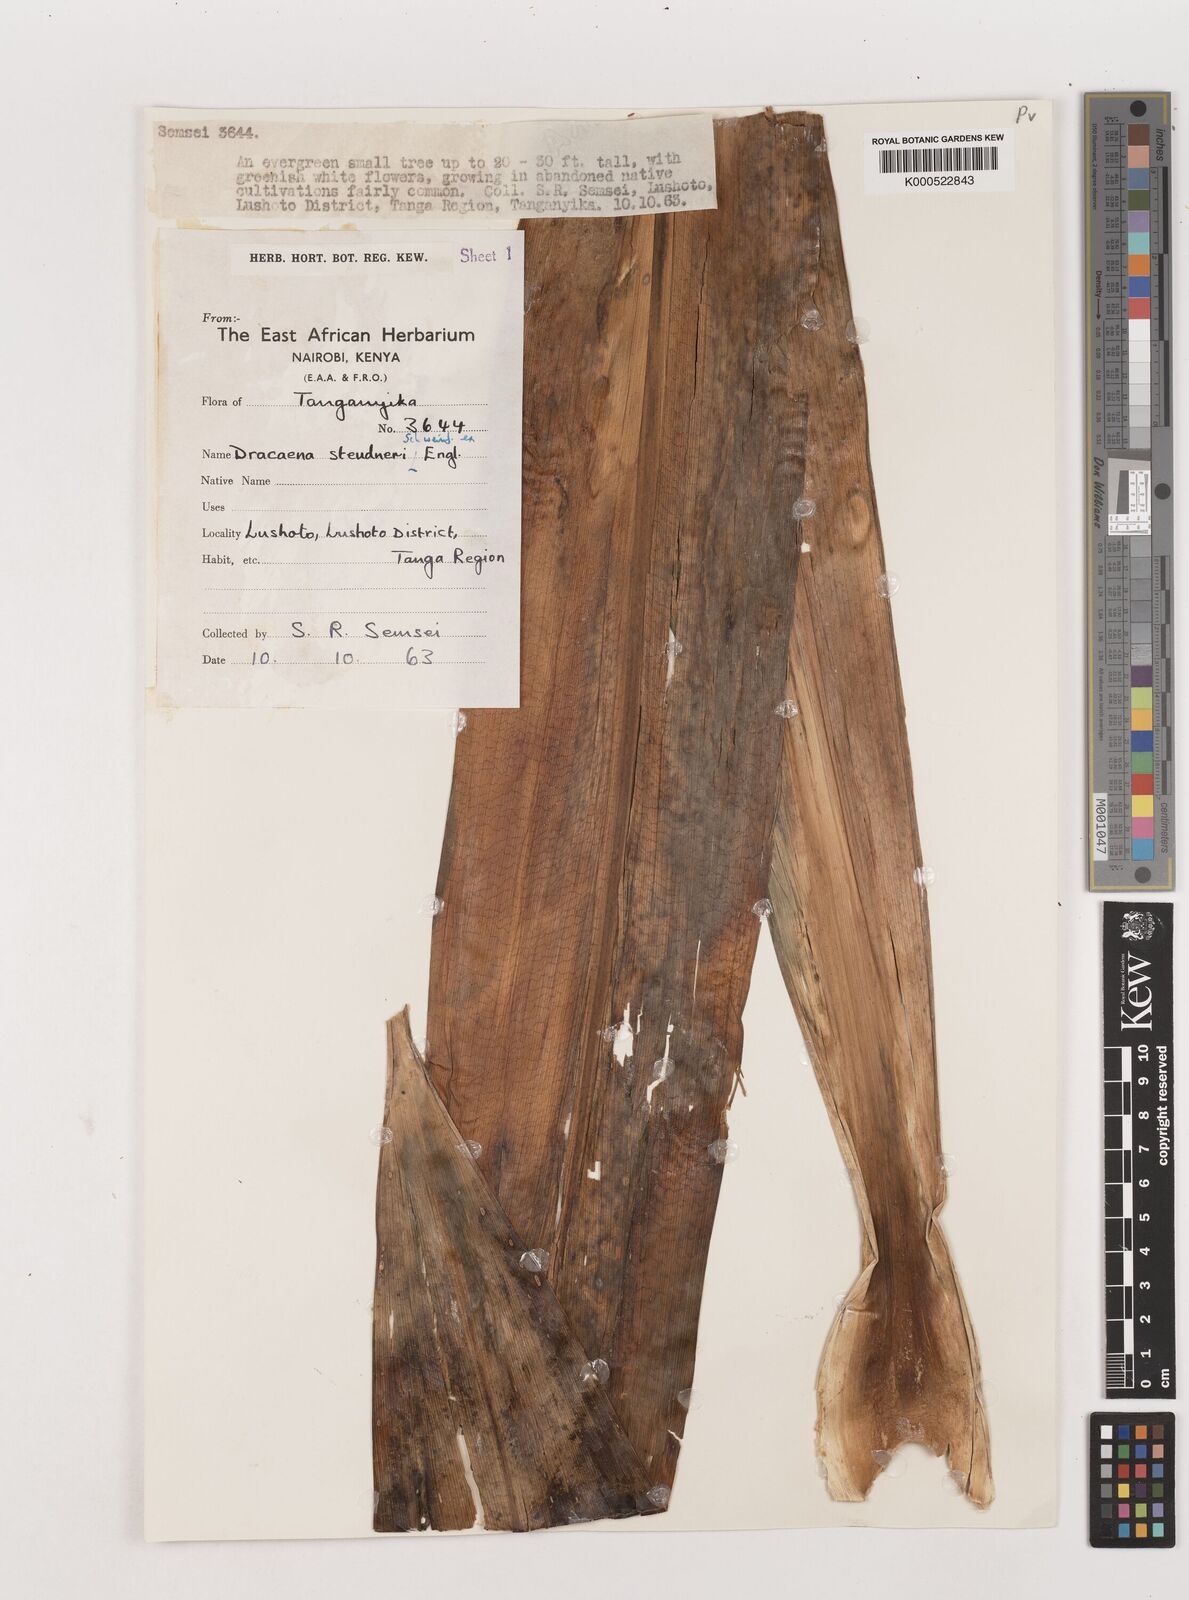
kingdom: Plantae
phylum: Tracheophyta
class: Liliopsida
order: Asparagales
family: Asparagaceae
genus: Dracaena
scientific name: Dracaena steudneri
